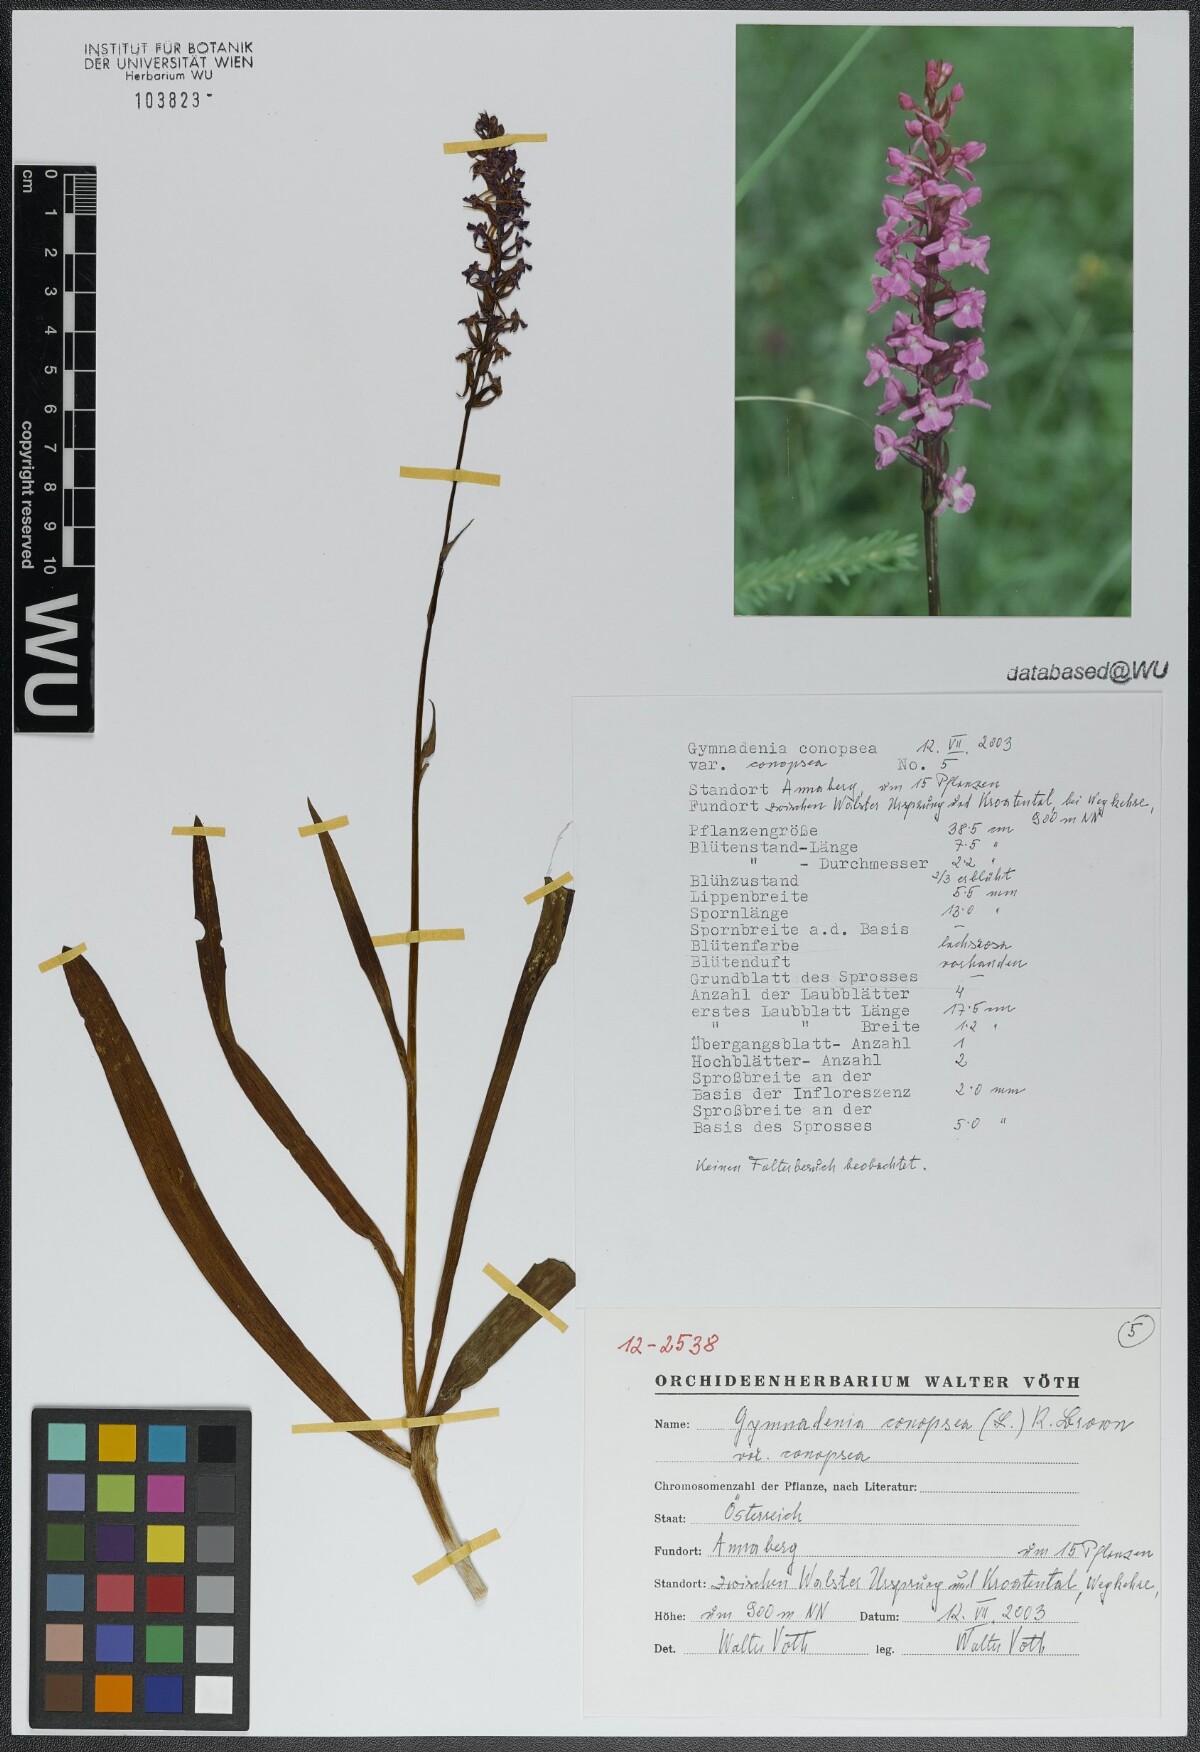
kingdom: Plantae
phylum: Tracheophyta
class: Liliopsida
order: Asparagales
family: Orchidaceae
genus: Gymnadenia
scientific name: Gymnadenia conopsea
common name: Fragrant orchid
